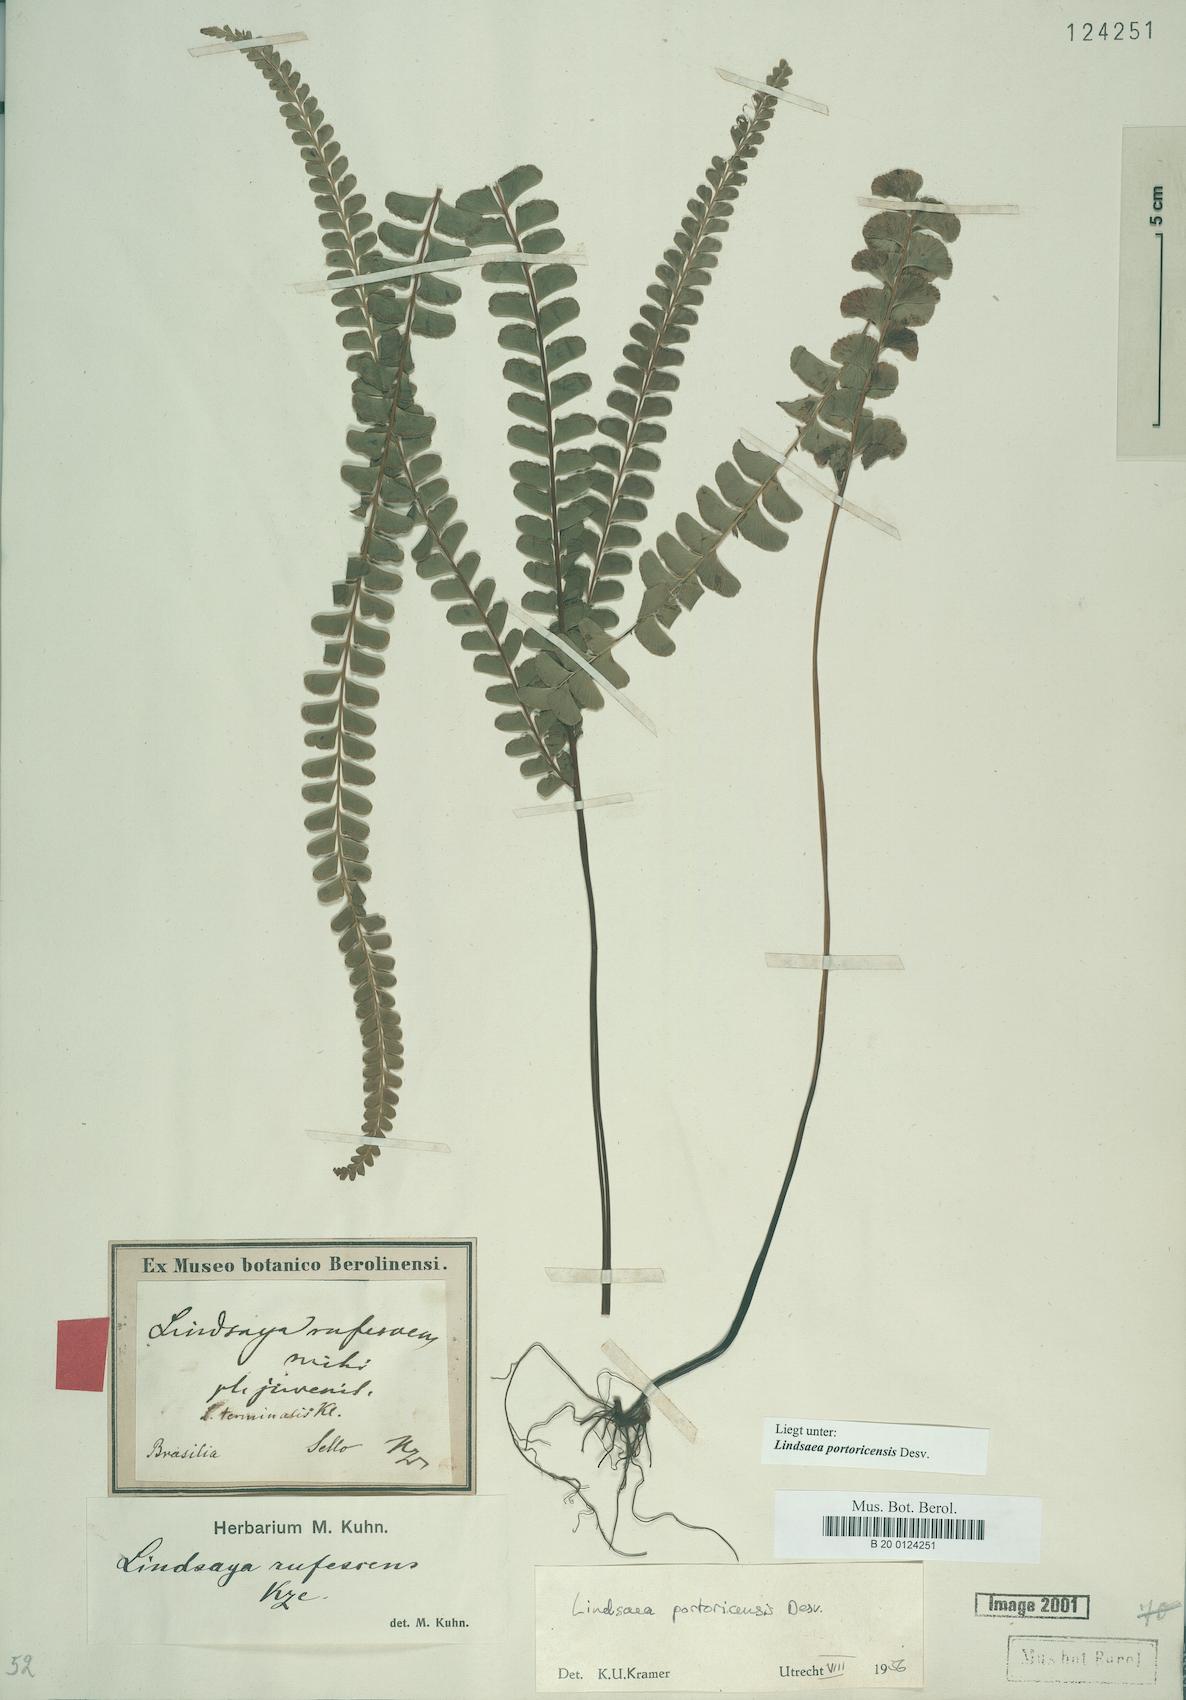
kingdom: Plantae
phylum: Tracheophyta
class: Polypodiopsida
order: Polypodiales
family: Lindsaeaceae
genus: Lindsaea
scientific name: Lindsaea portoricensis
